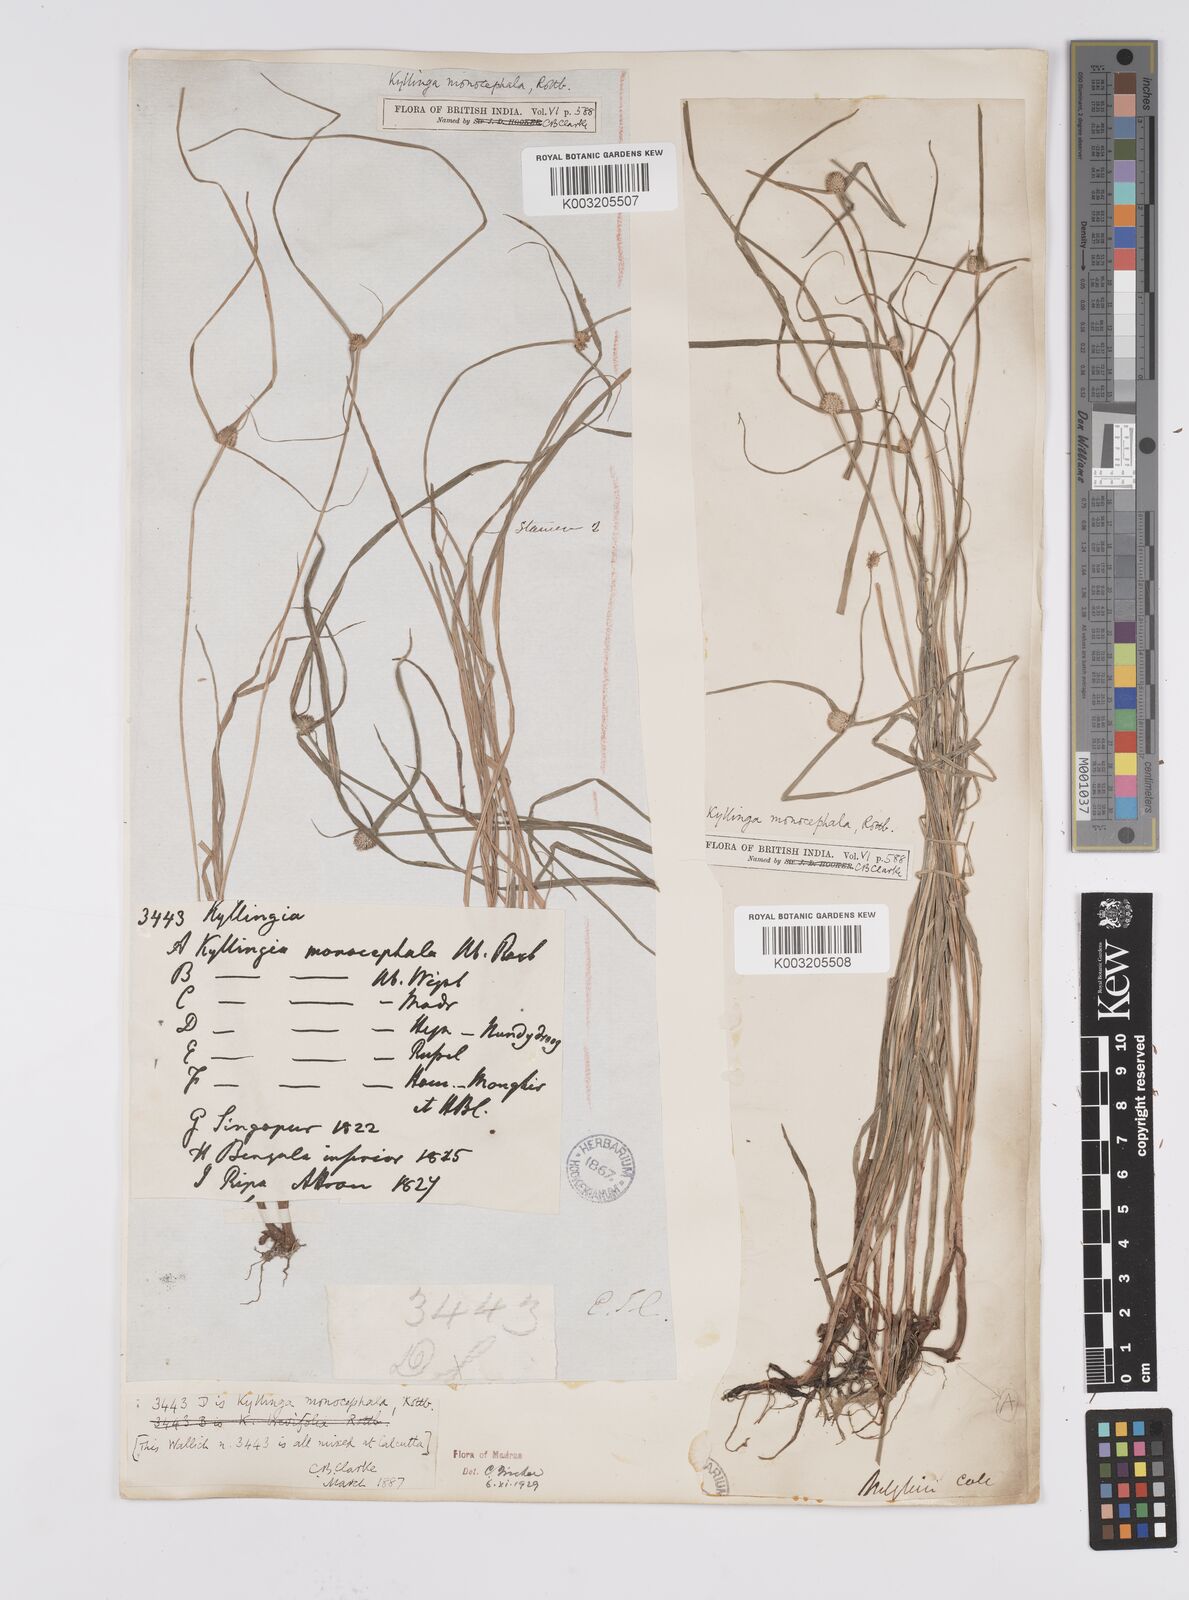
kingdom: Plantae
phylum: Tracheophyta
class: Liliopsida
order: Poales
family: Cyperaceae
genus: Cyperus
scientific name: Cyperus nemoralis
